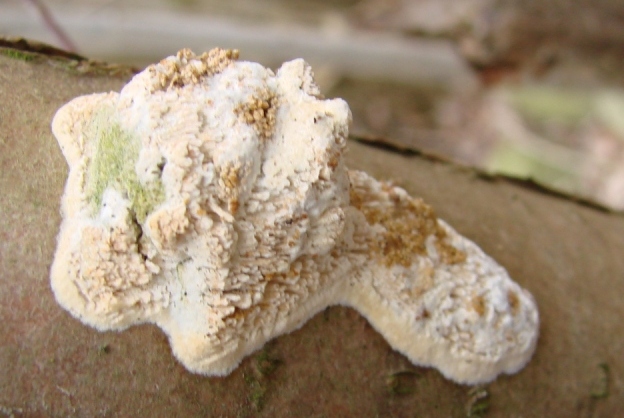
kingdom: Fungi
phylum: Basidiomycota
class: Agaricomycetes
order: Hymenochaetales
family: Schizoporaceae
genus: Schizopora
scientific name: Schizopora paradoxa
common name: hvid tandsvamp
